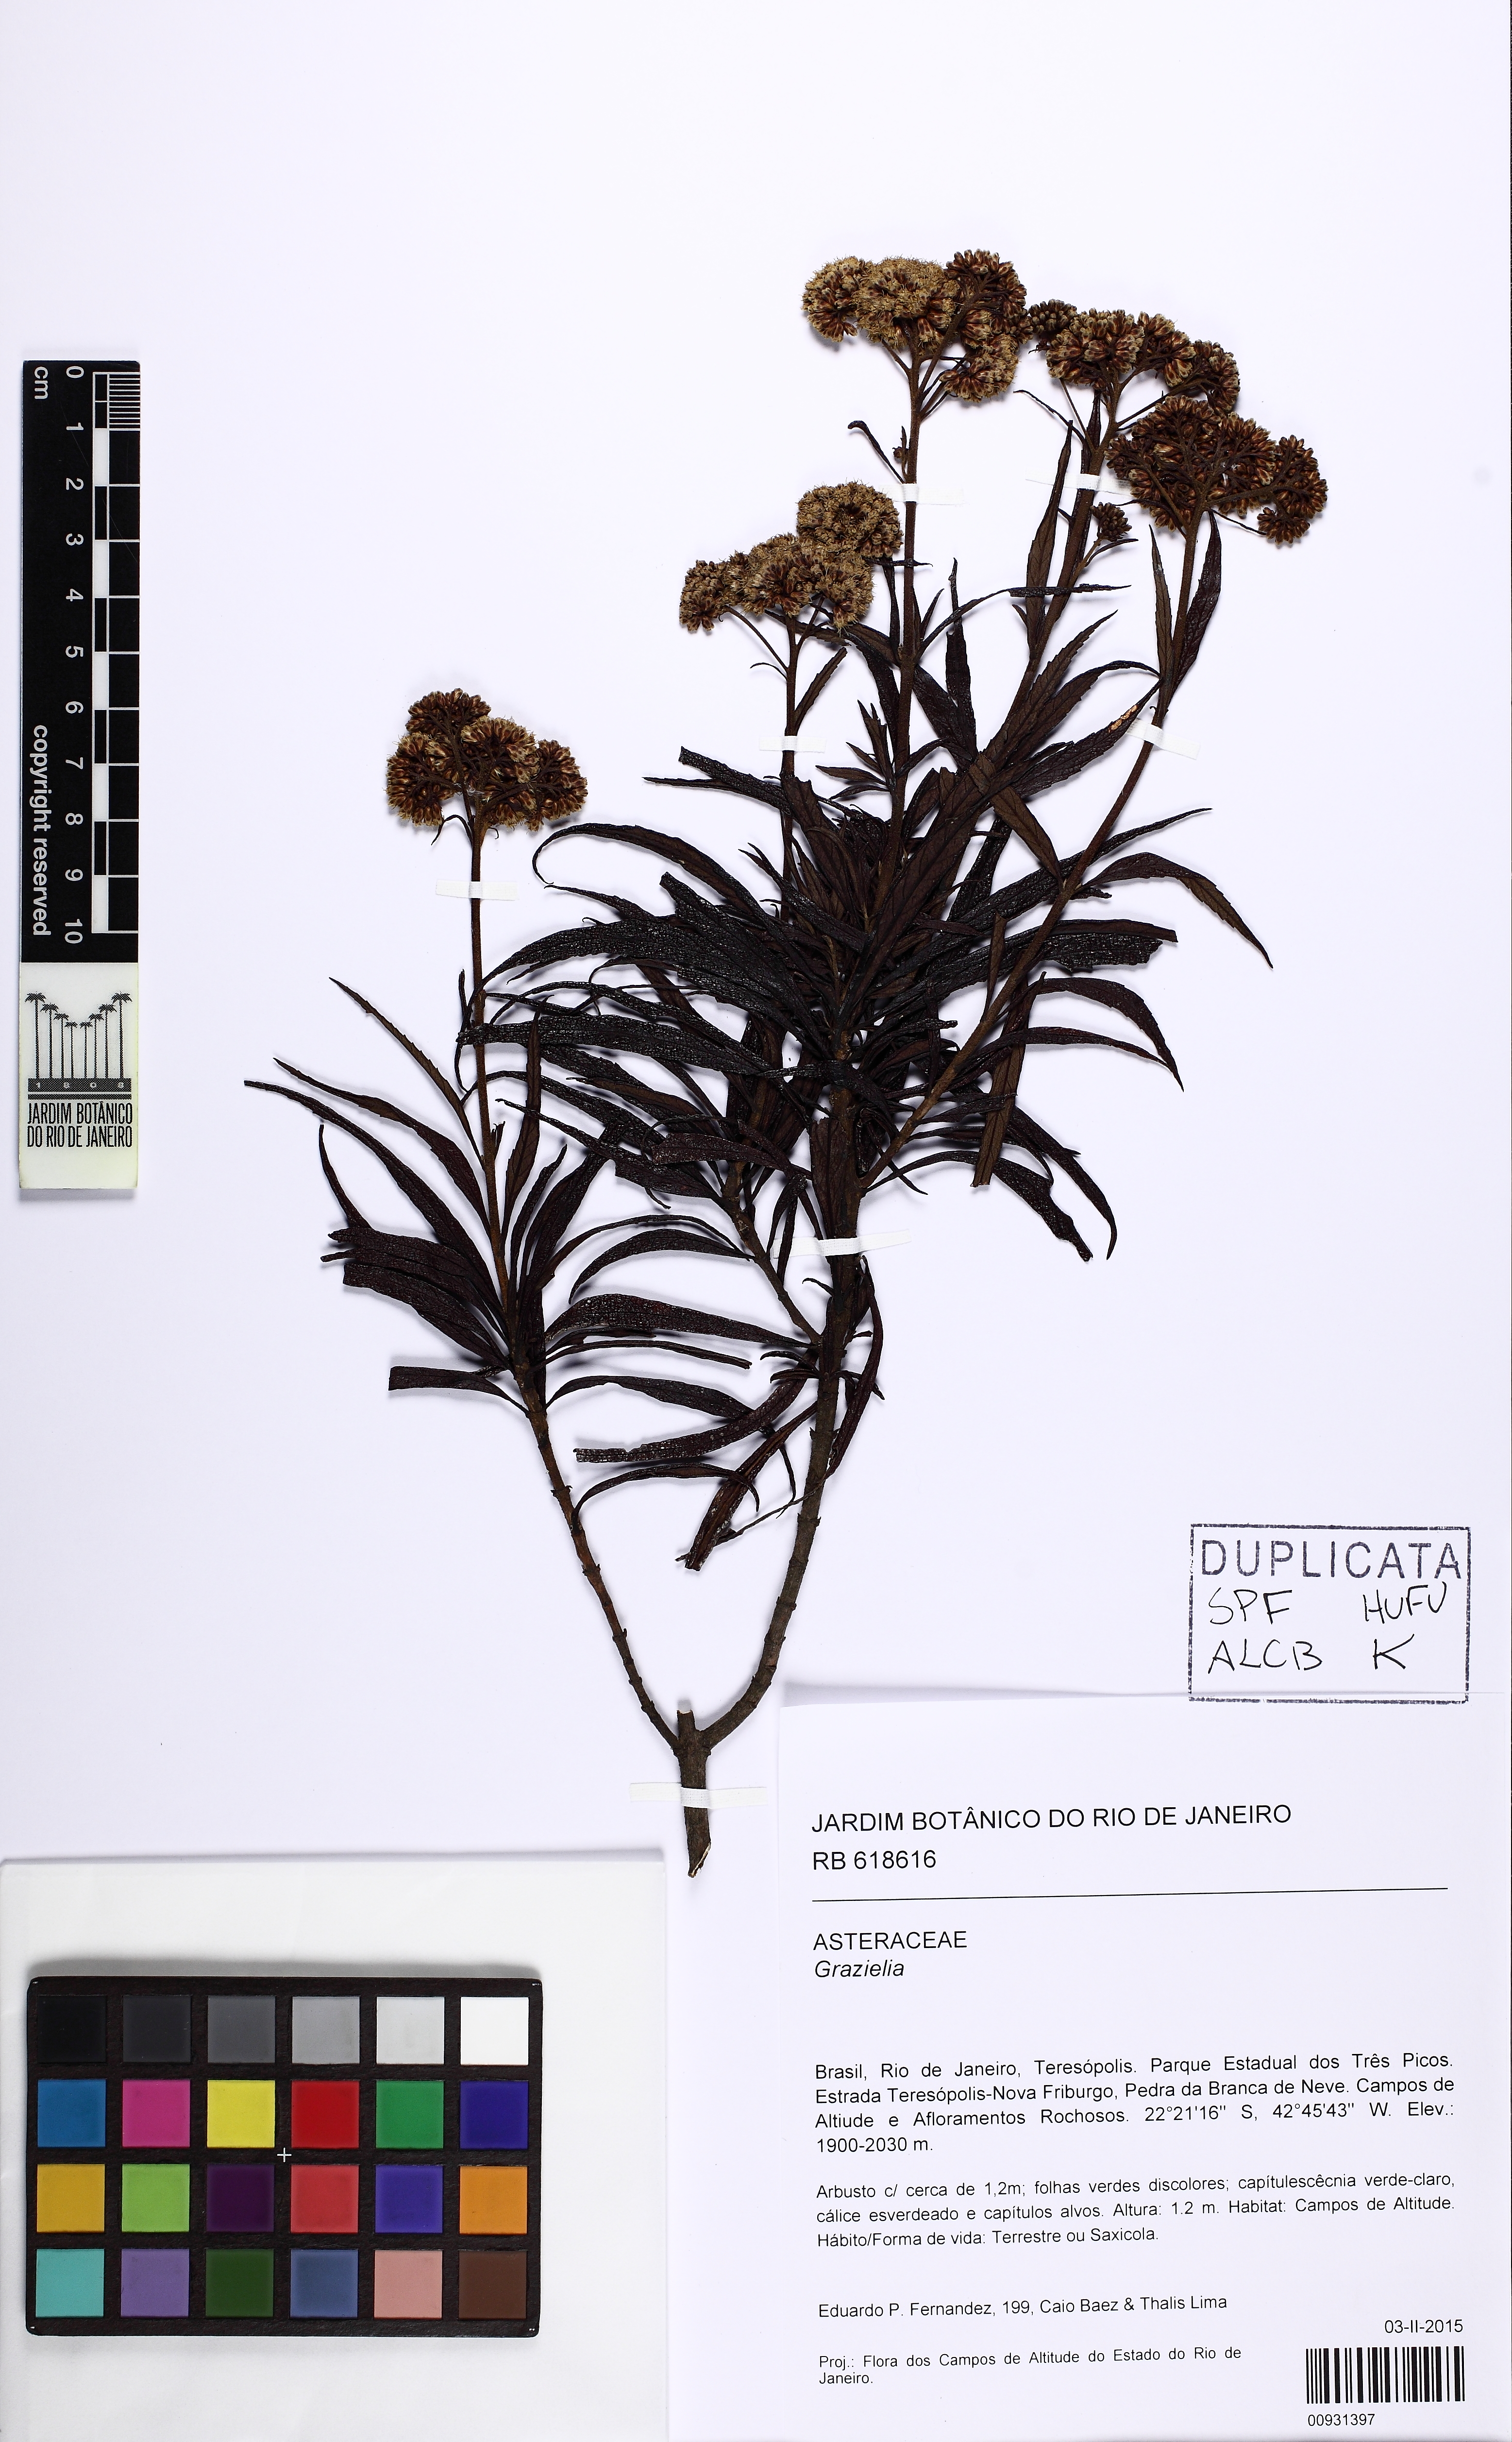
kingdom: Plantae
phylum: Tracheophyta
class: Magnoliopsida
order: Asterales
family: Asteraceae
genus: Grazielia
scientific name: Grazielia
